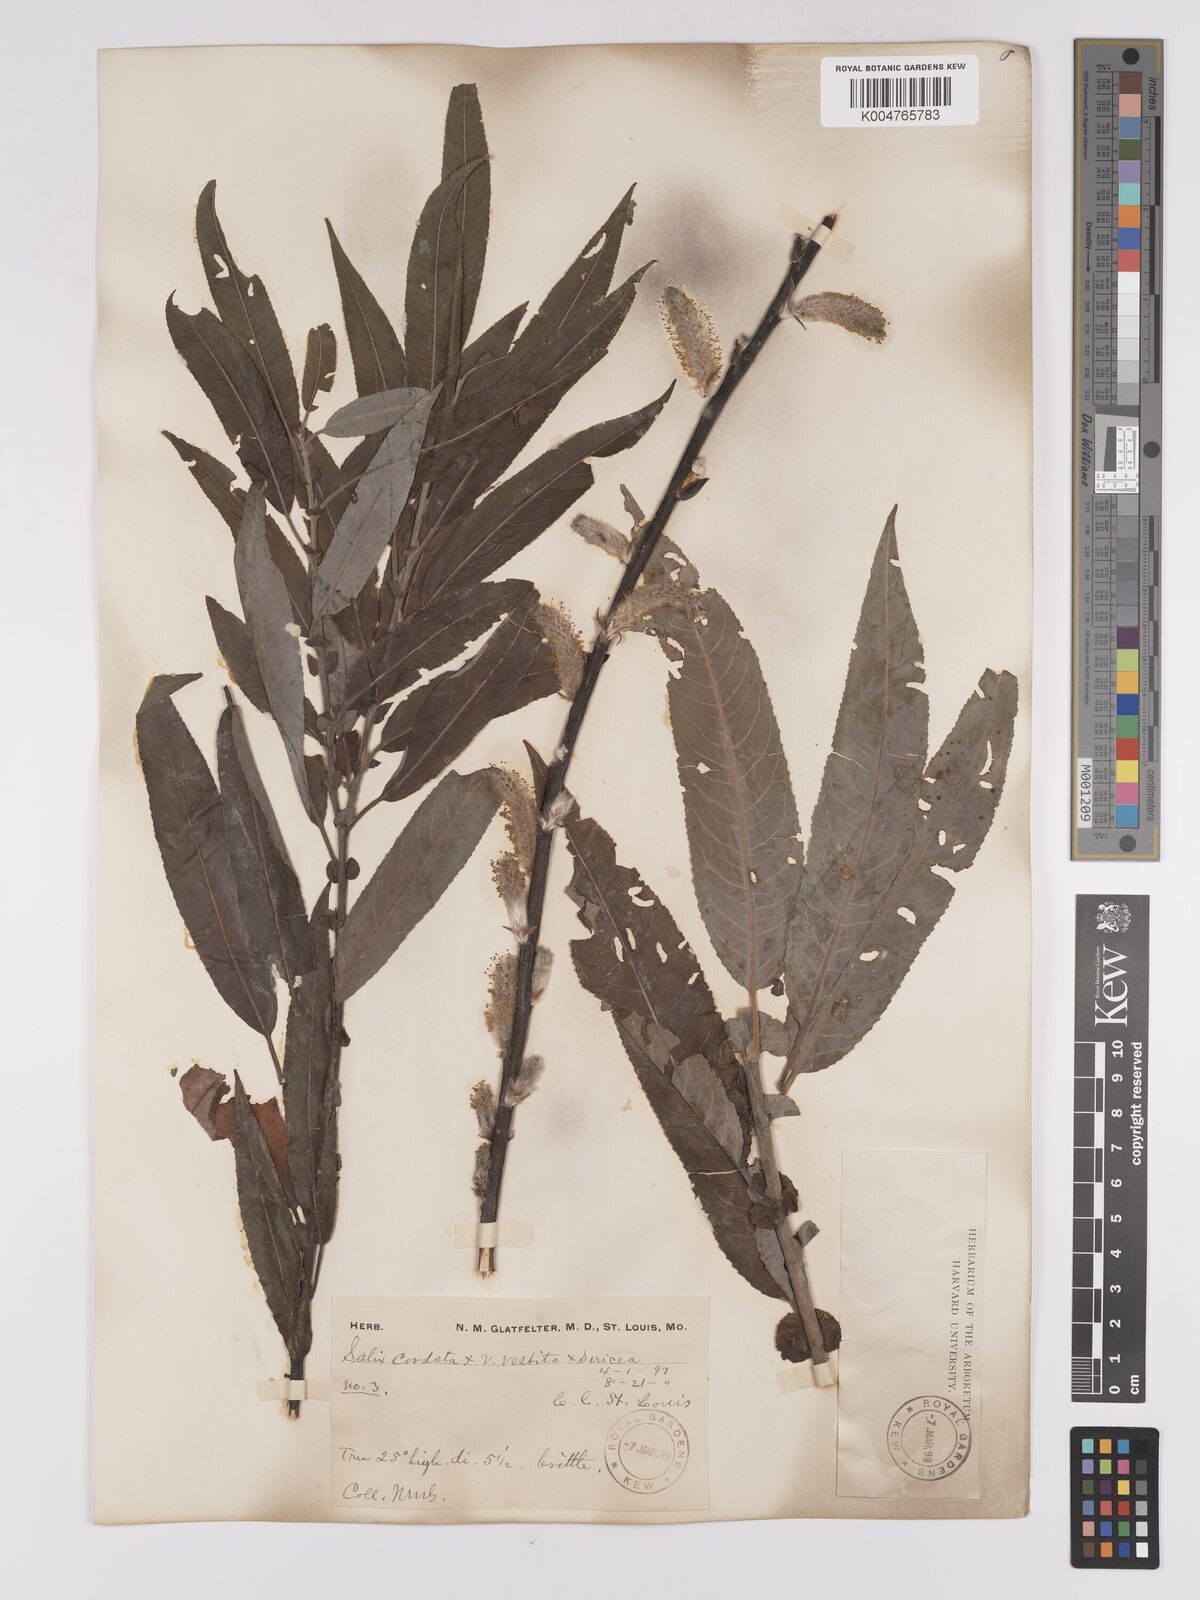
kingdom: Plantae
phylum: Tracheophyta
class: Magnoliopsida
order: Malpighiales
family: Salicaceae
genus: Salix
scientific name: Salix cordata
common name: Heart-leaf willow
